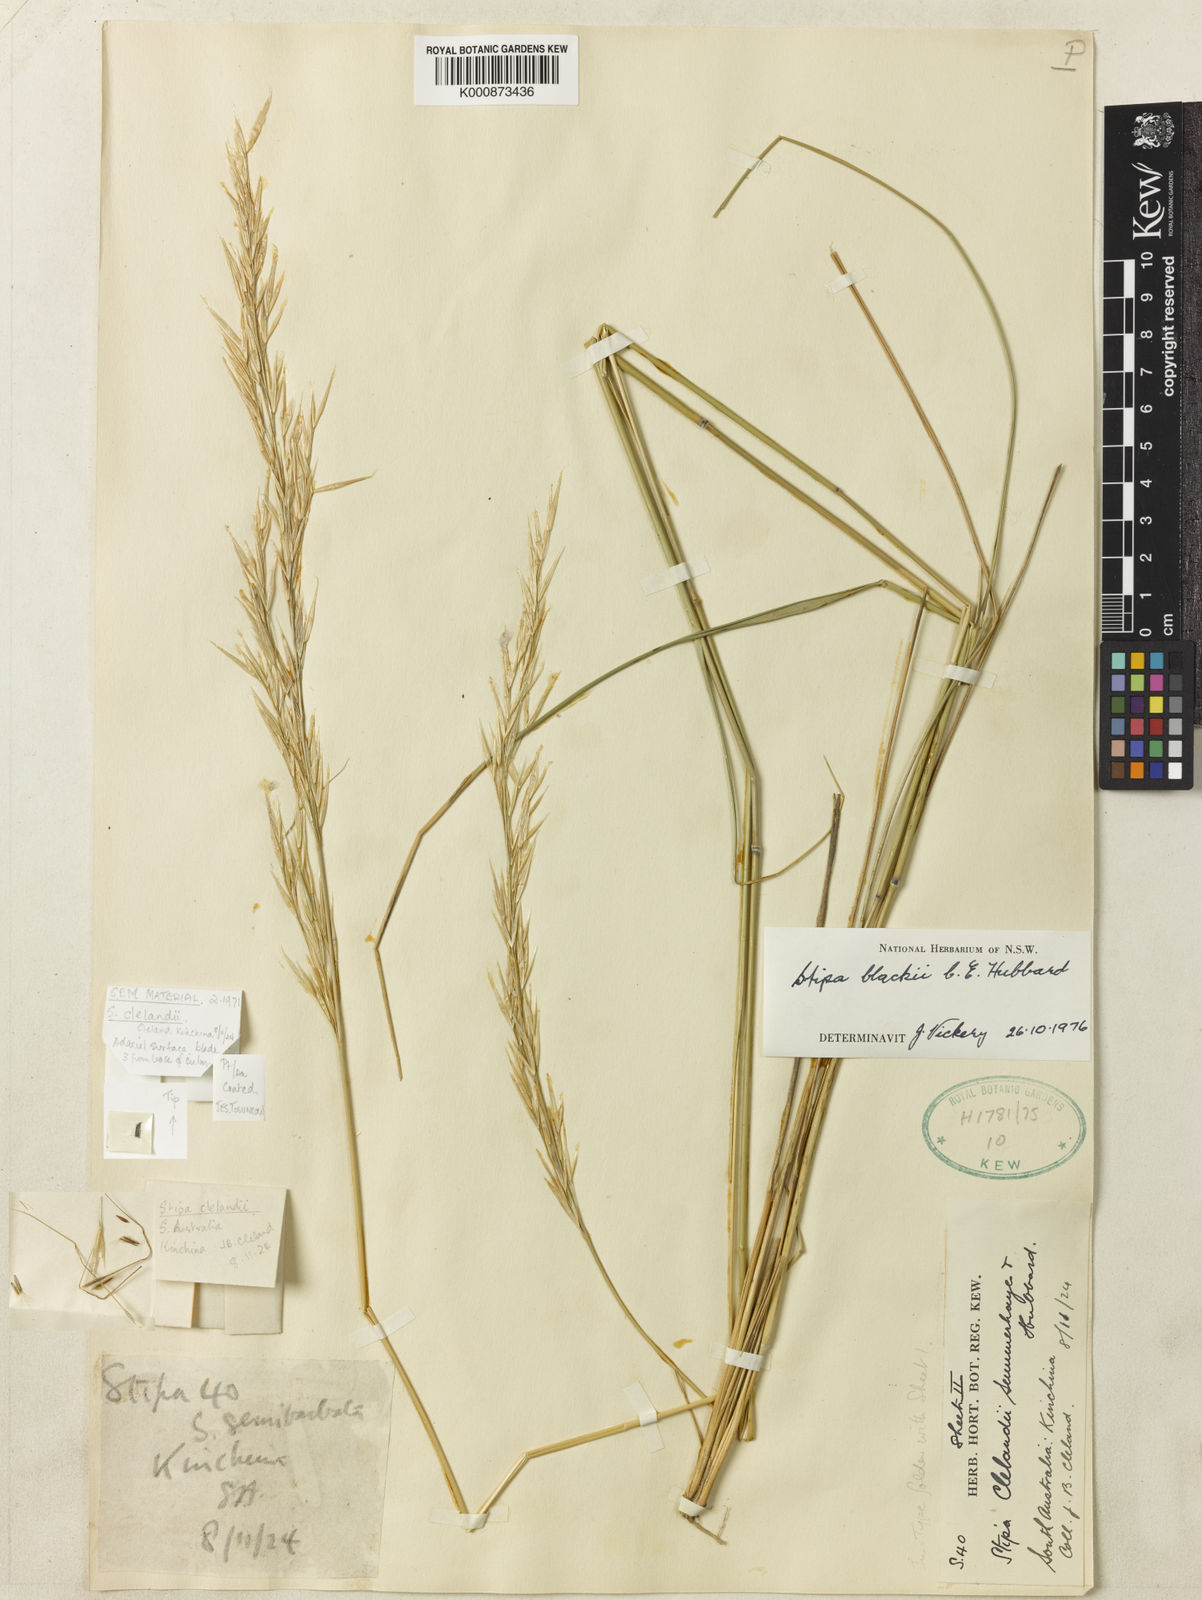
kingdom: Plantae
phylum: Tracheophyta
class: Liliopsida
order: Poales
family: Poaceae
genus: Austrostipa
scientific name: Austrostipa blackii
